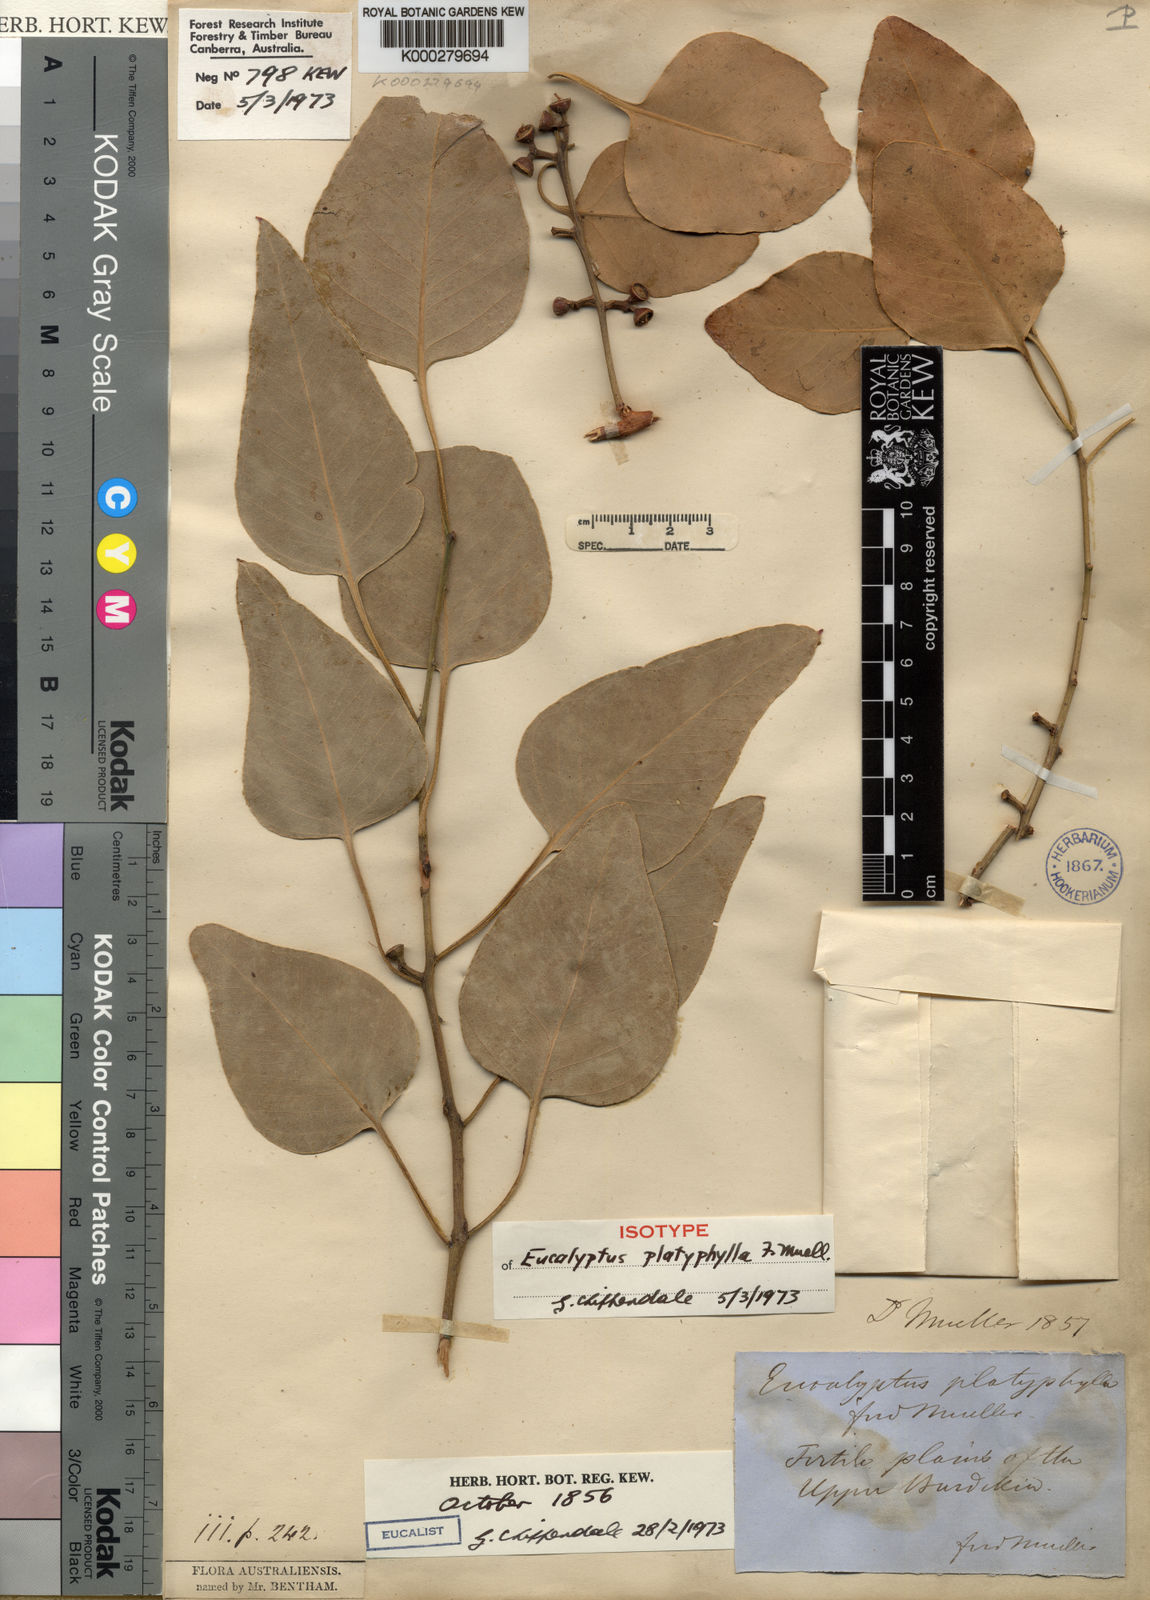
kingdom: Plantae
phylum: Tracheophyta
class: Magnoliopsida
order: Myrtales
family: Myrtaceae
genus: Eucalyptus
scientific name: Eucalyptus platyphylla
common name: Poplar-gum
